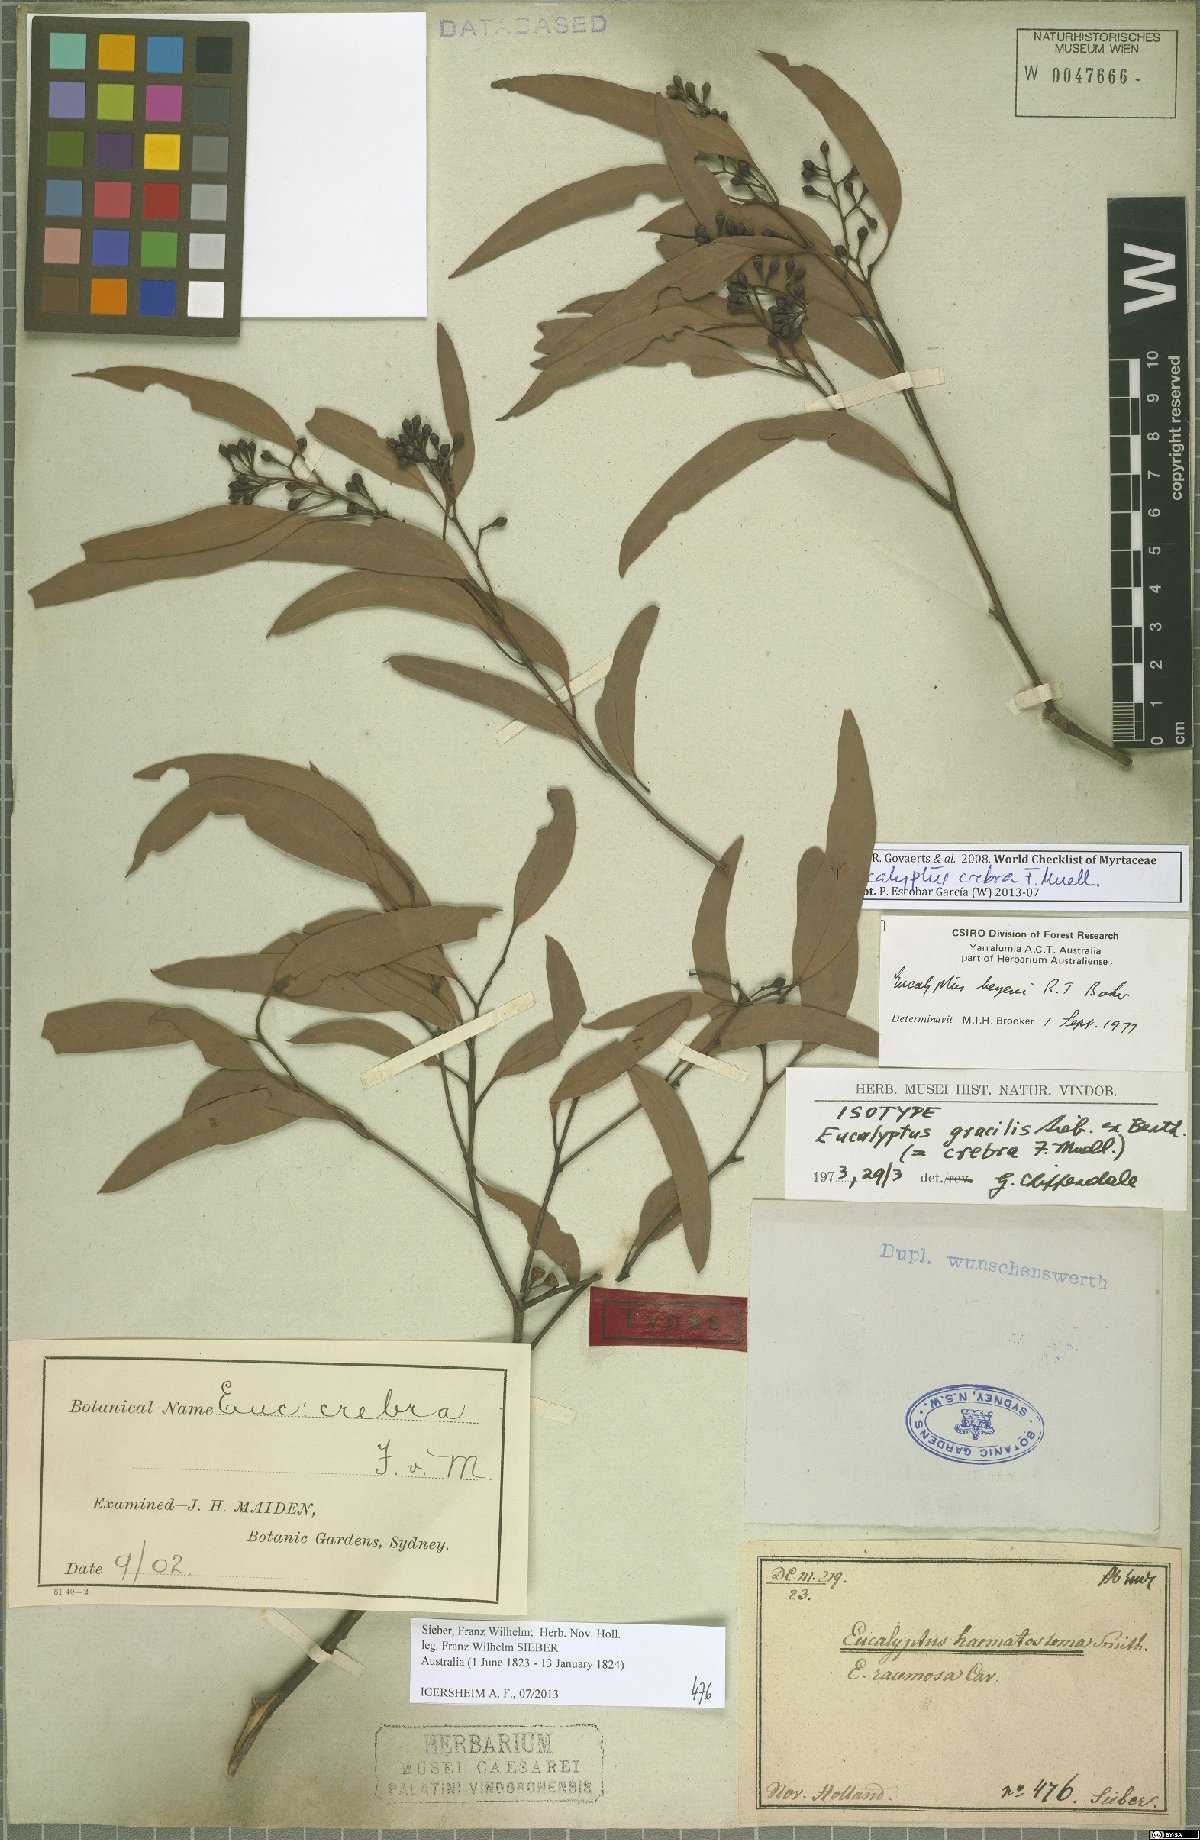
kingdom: Plantae
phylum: Tracheophyta
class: Magnoliopsida
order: Myrtales
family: Myrtaceae
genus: Eucalyptus
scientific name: Eucalyptus crebra
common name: Narrowleaf red ironbark
